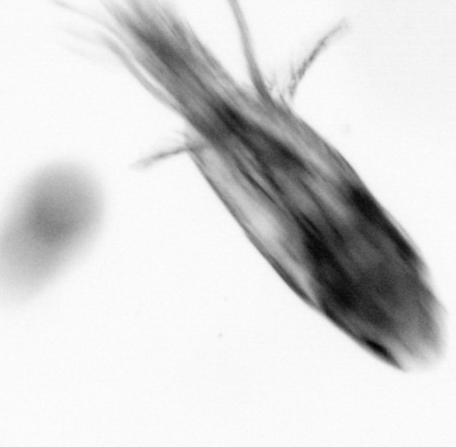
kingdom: Animalia
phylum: Arthropoda
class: Copepoda
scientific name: Copepoda
